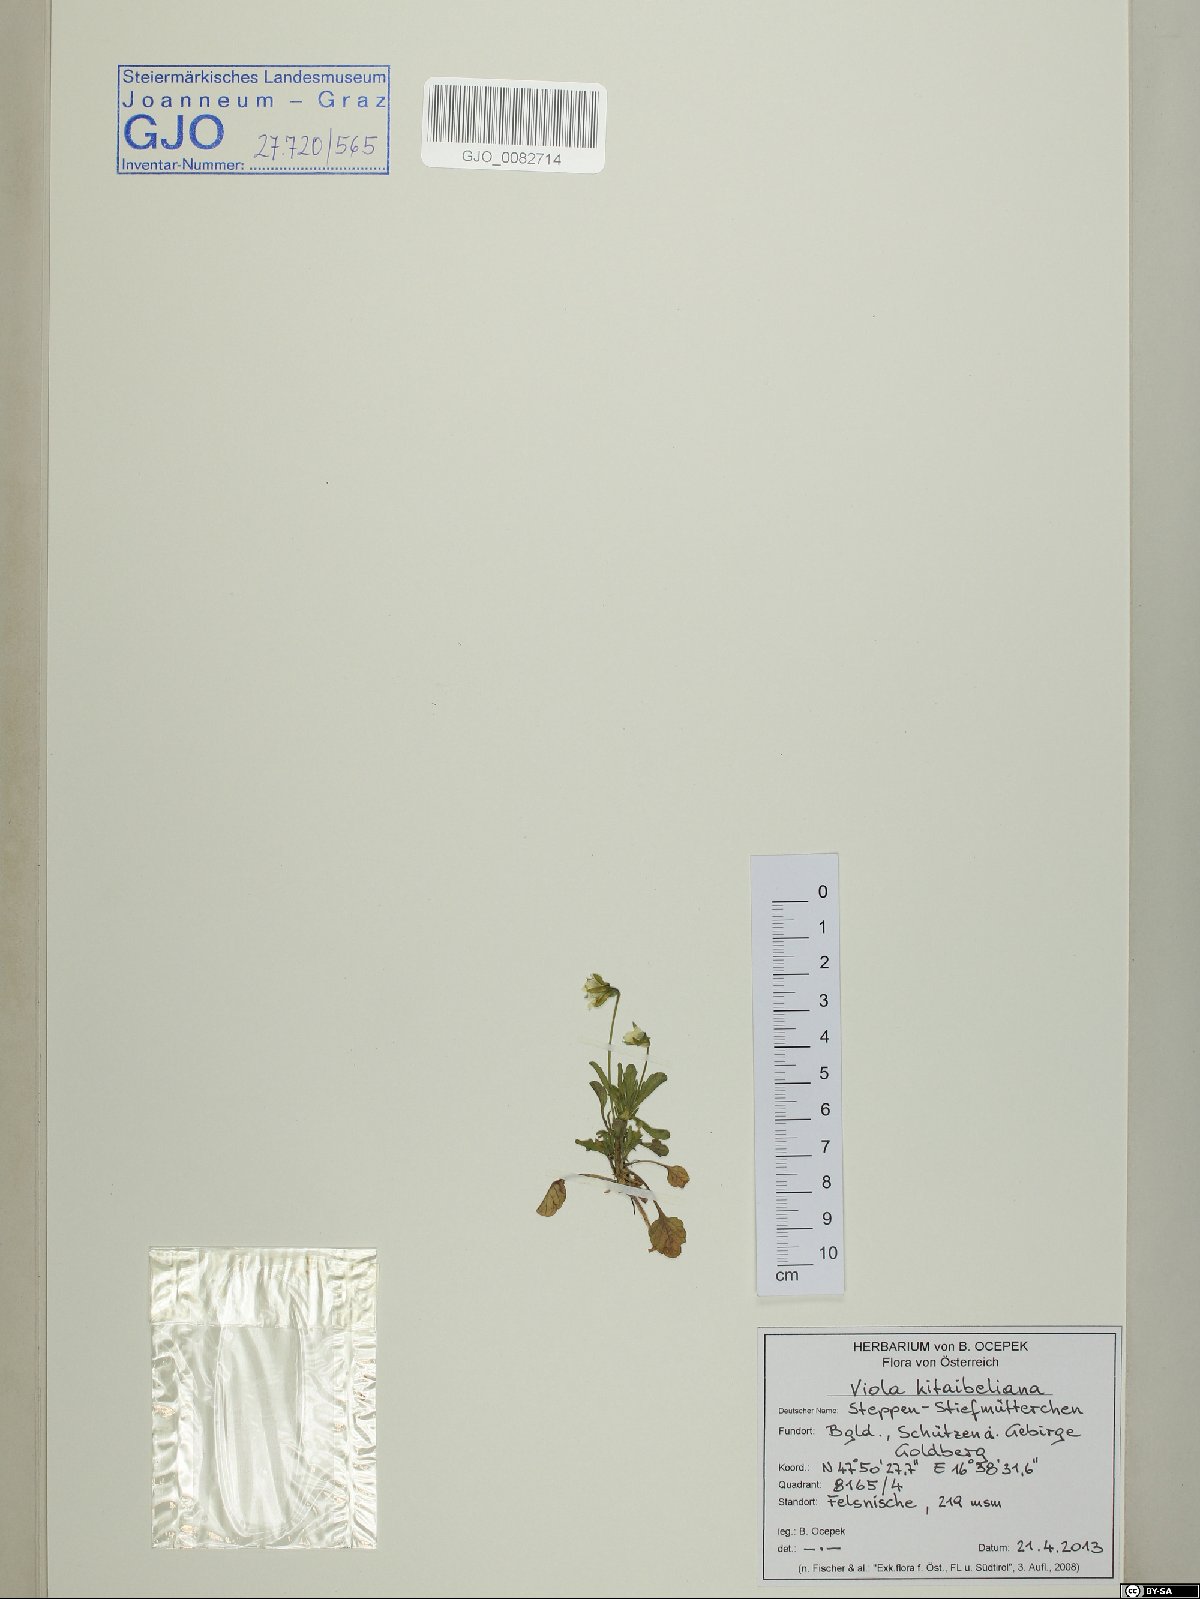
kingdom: Plantae
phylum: Tracheophyta
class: Magnoliopsida
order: Malpighiales
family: Violaceae
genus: Viola
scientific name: Viola kitaibeliana
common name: Dwarf pansy
